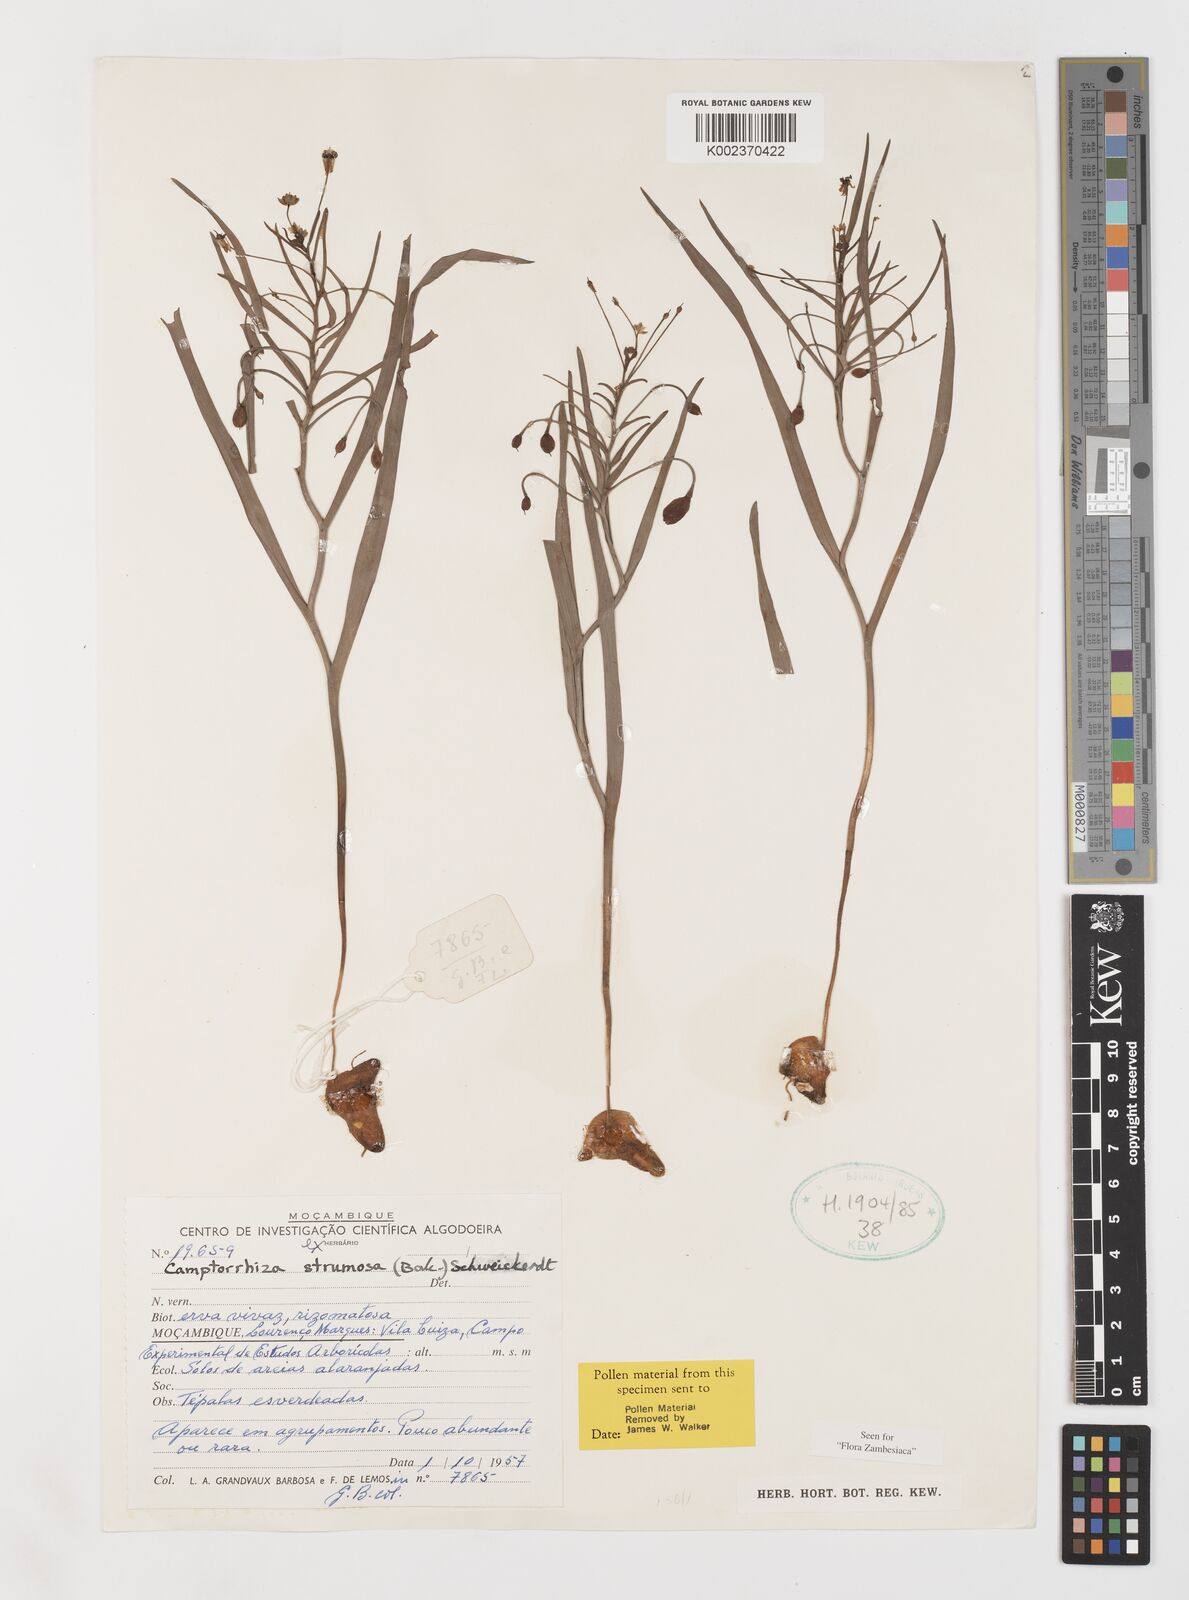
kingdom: Plantae
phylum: Tracheophyta
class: Liliopsida
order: Liliales
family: Colchicaceae
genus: Camptorrhiza
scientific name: Camptorrhiza strumosa
